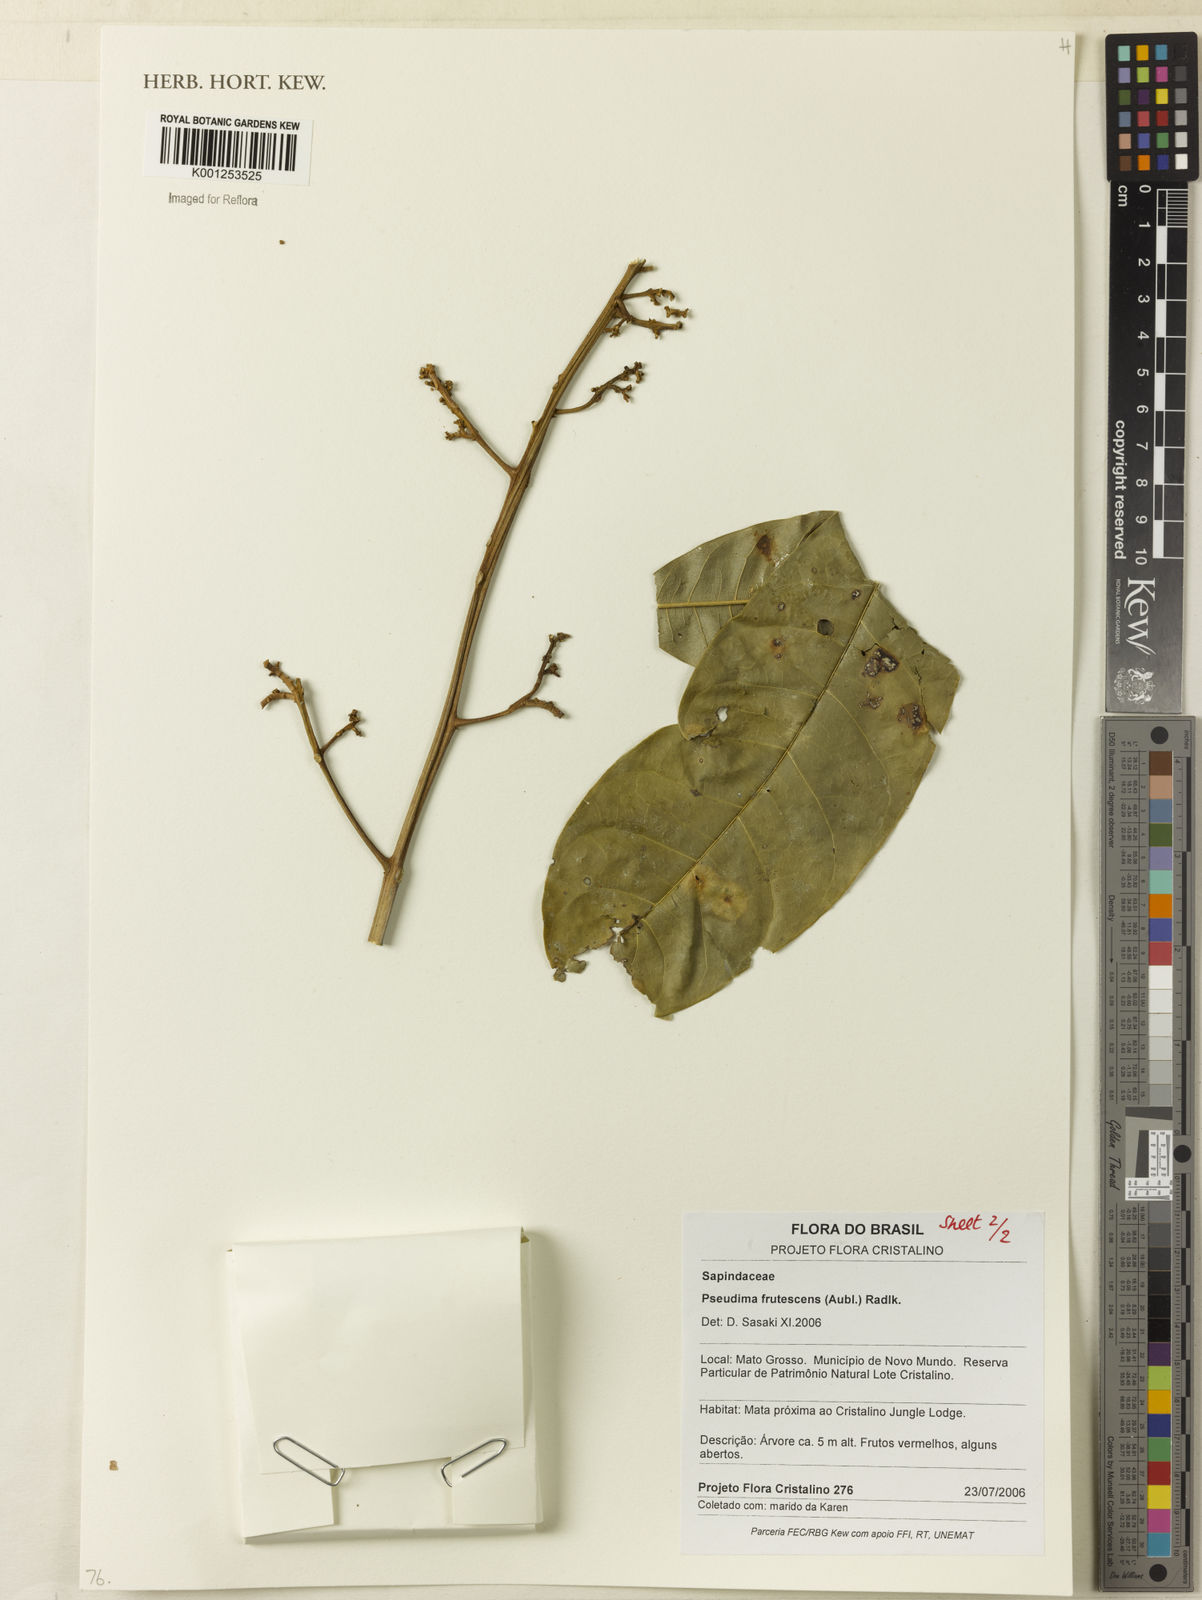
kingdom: Plantae
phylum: Tracheophyta
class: Magnoliopsida
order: Sapindales
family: Sapindaceae
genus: Pseudima
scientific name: Pseudima frutescens
